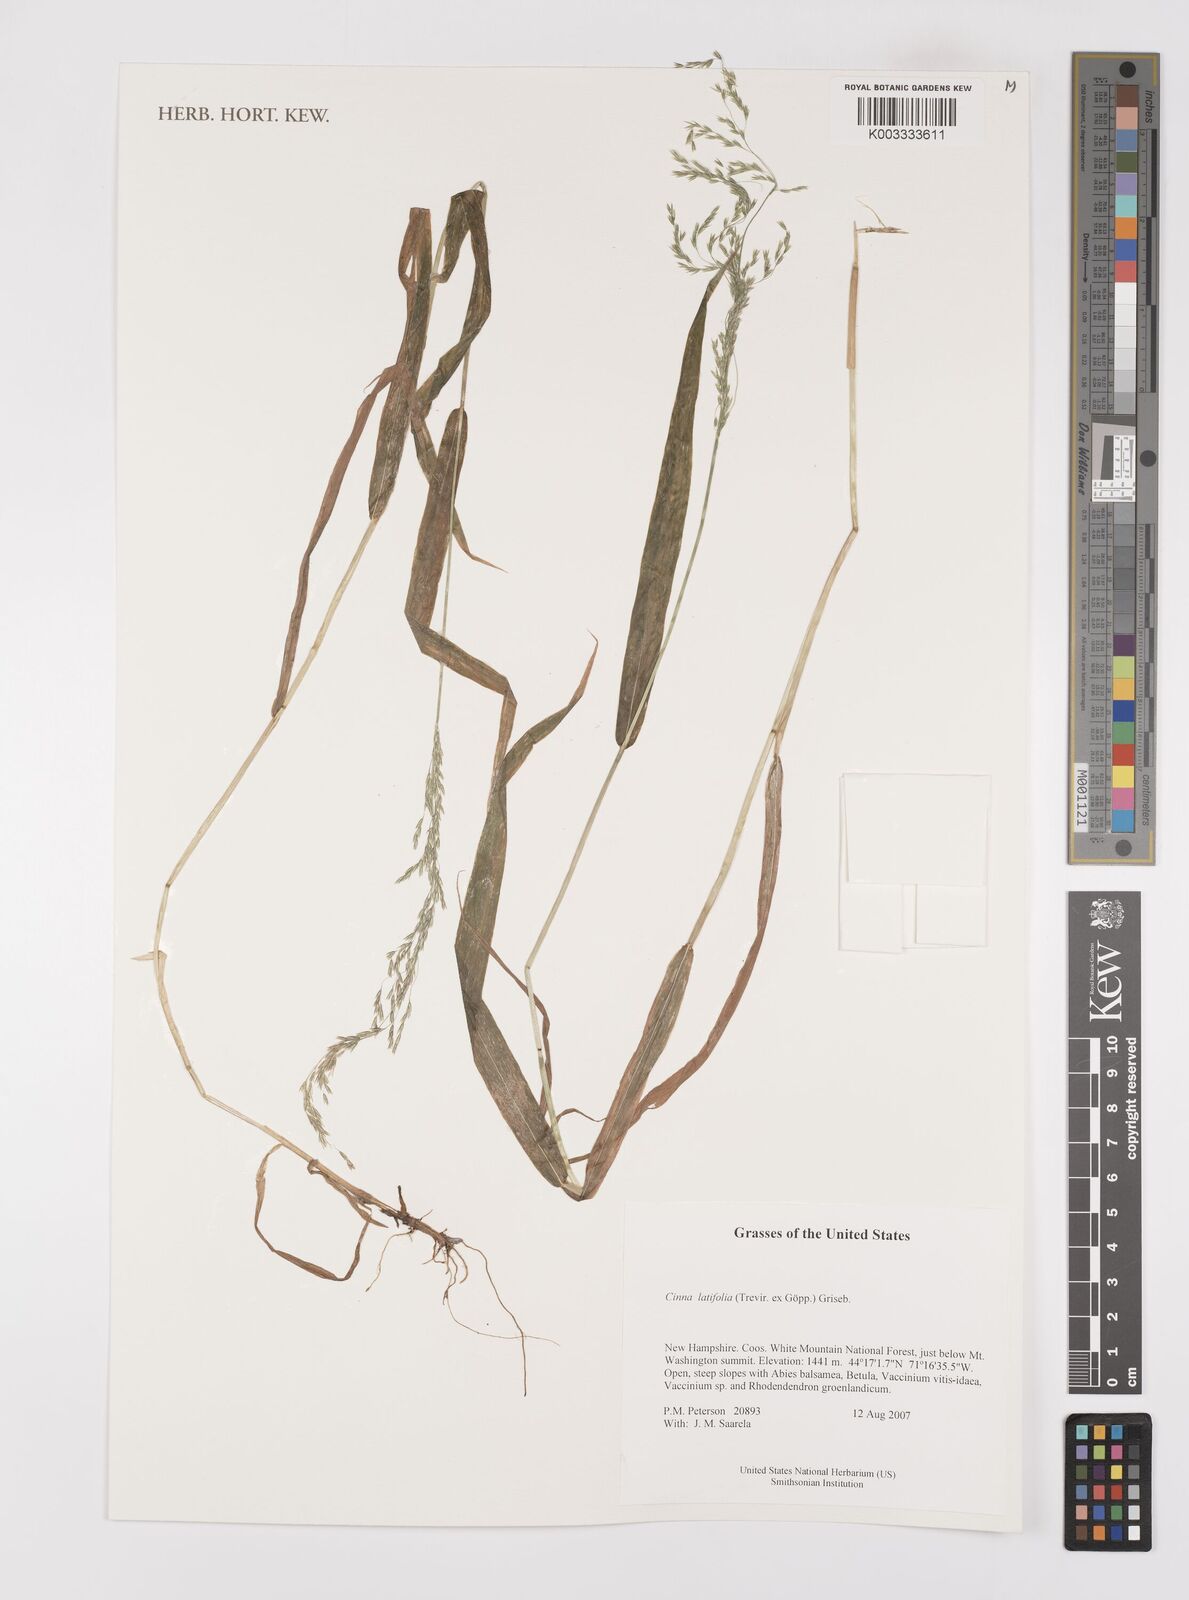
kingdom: Plantae
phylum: Tracheophyta
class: Liliopsida
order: Poales
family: Poaceae
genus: Cinna
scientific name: Cinna latifolia
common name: Drooping woodreed
